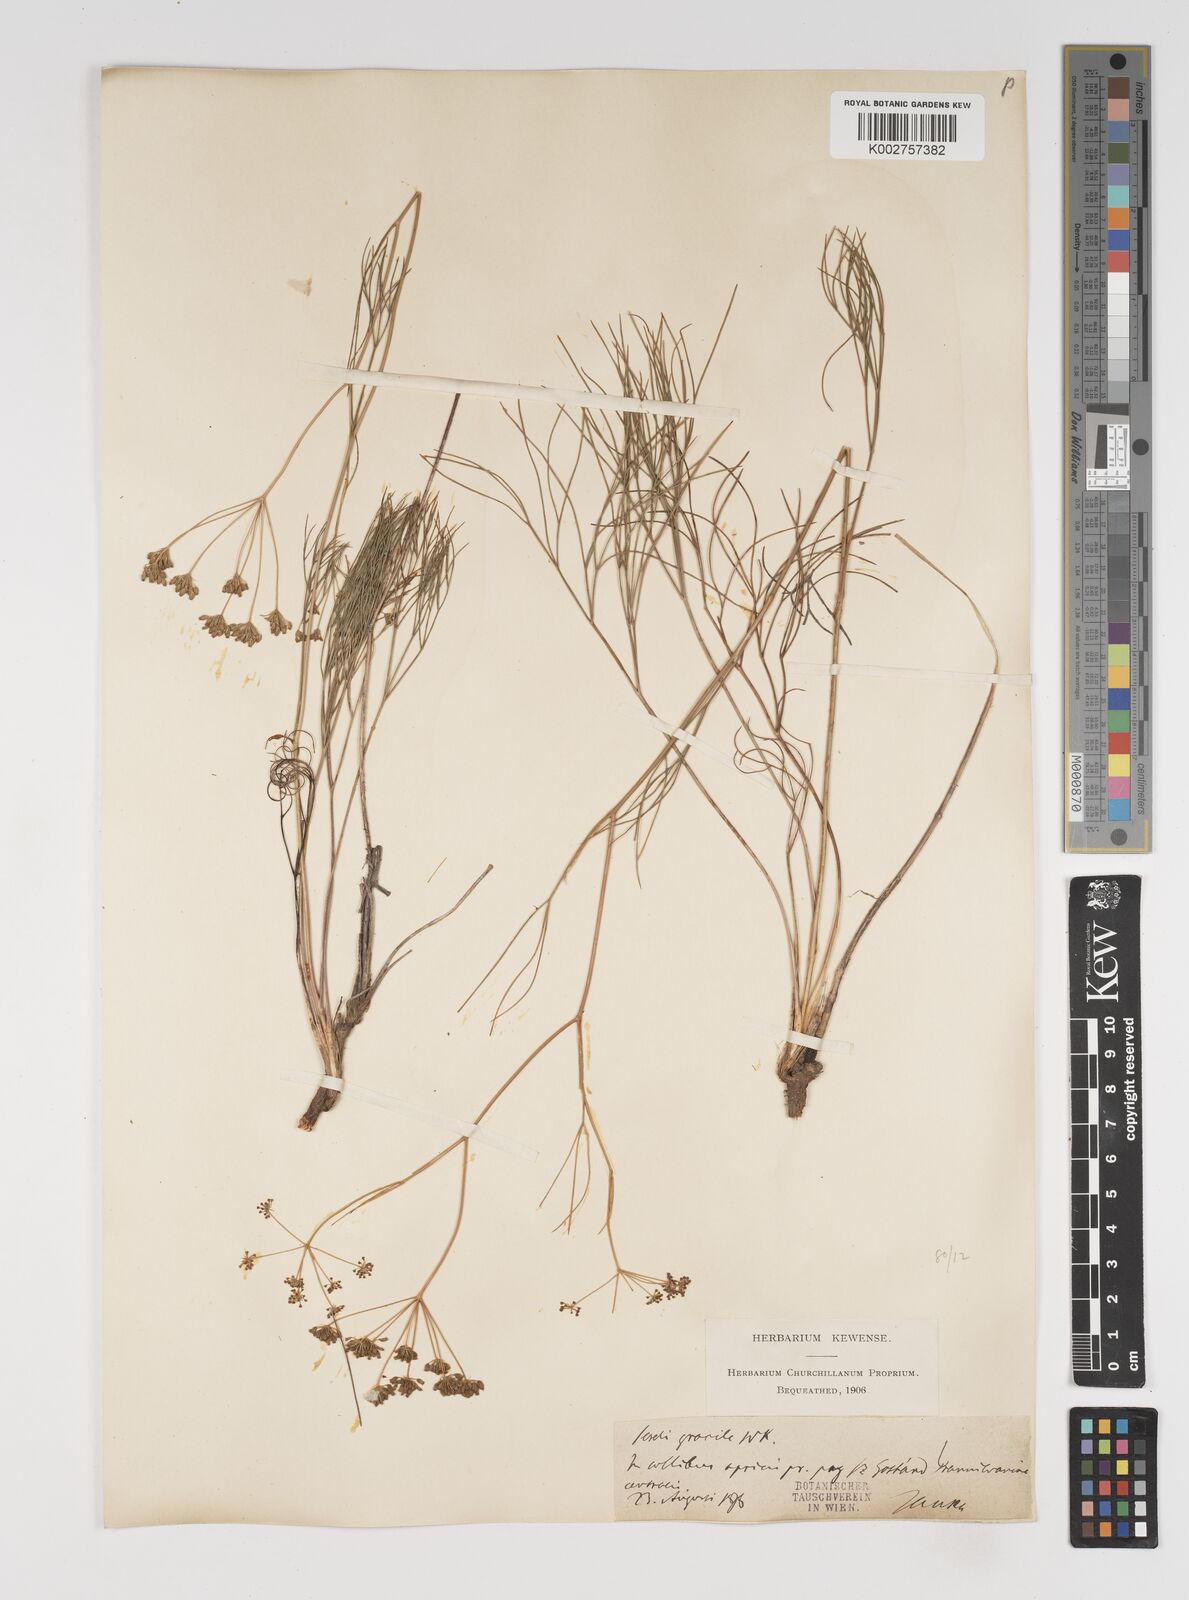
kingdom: Plantae
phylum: Tracheophyta
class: Magnoliopsida
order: Apiales
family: Apiaceae
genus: Seseli
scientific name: Seseli gracile
